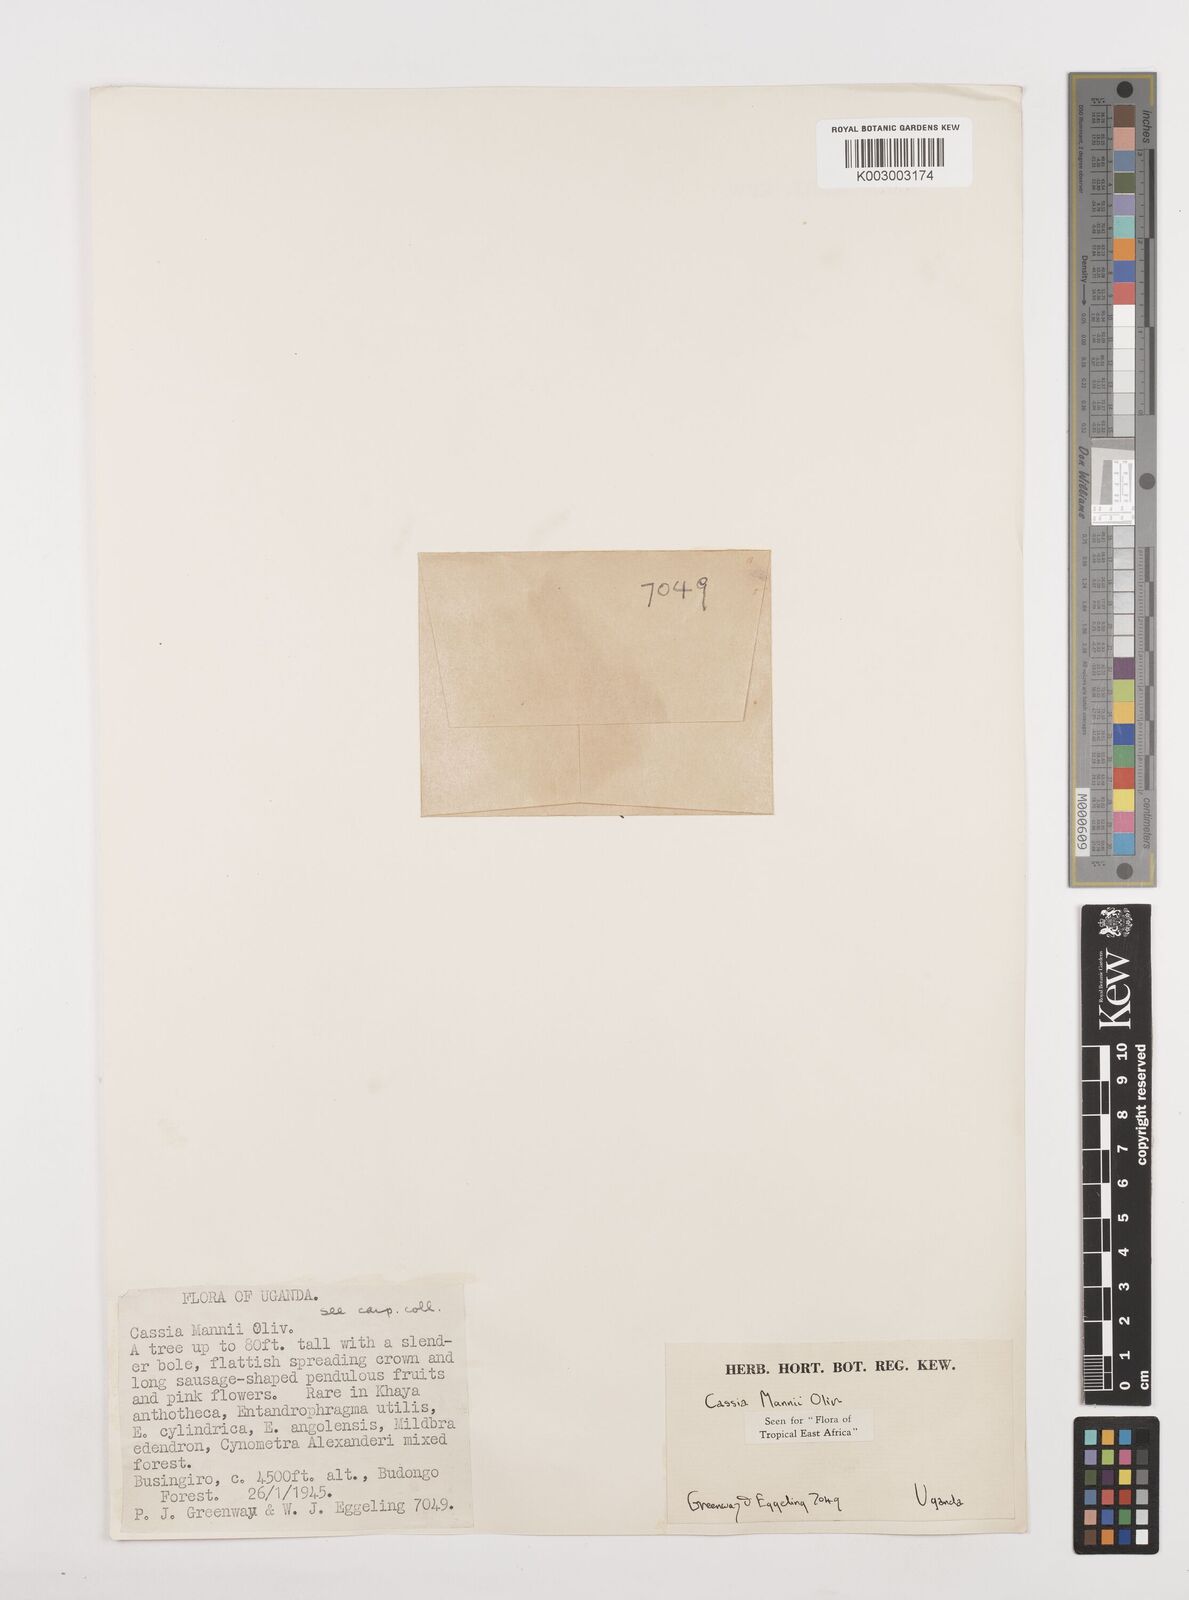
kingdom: Plantae
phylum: Tracheophyta
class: Magnoliopsida
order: Fabales
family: Fabaceae
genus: Cassia
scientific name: Cassia mannii
